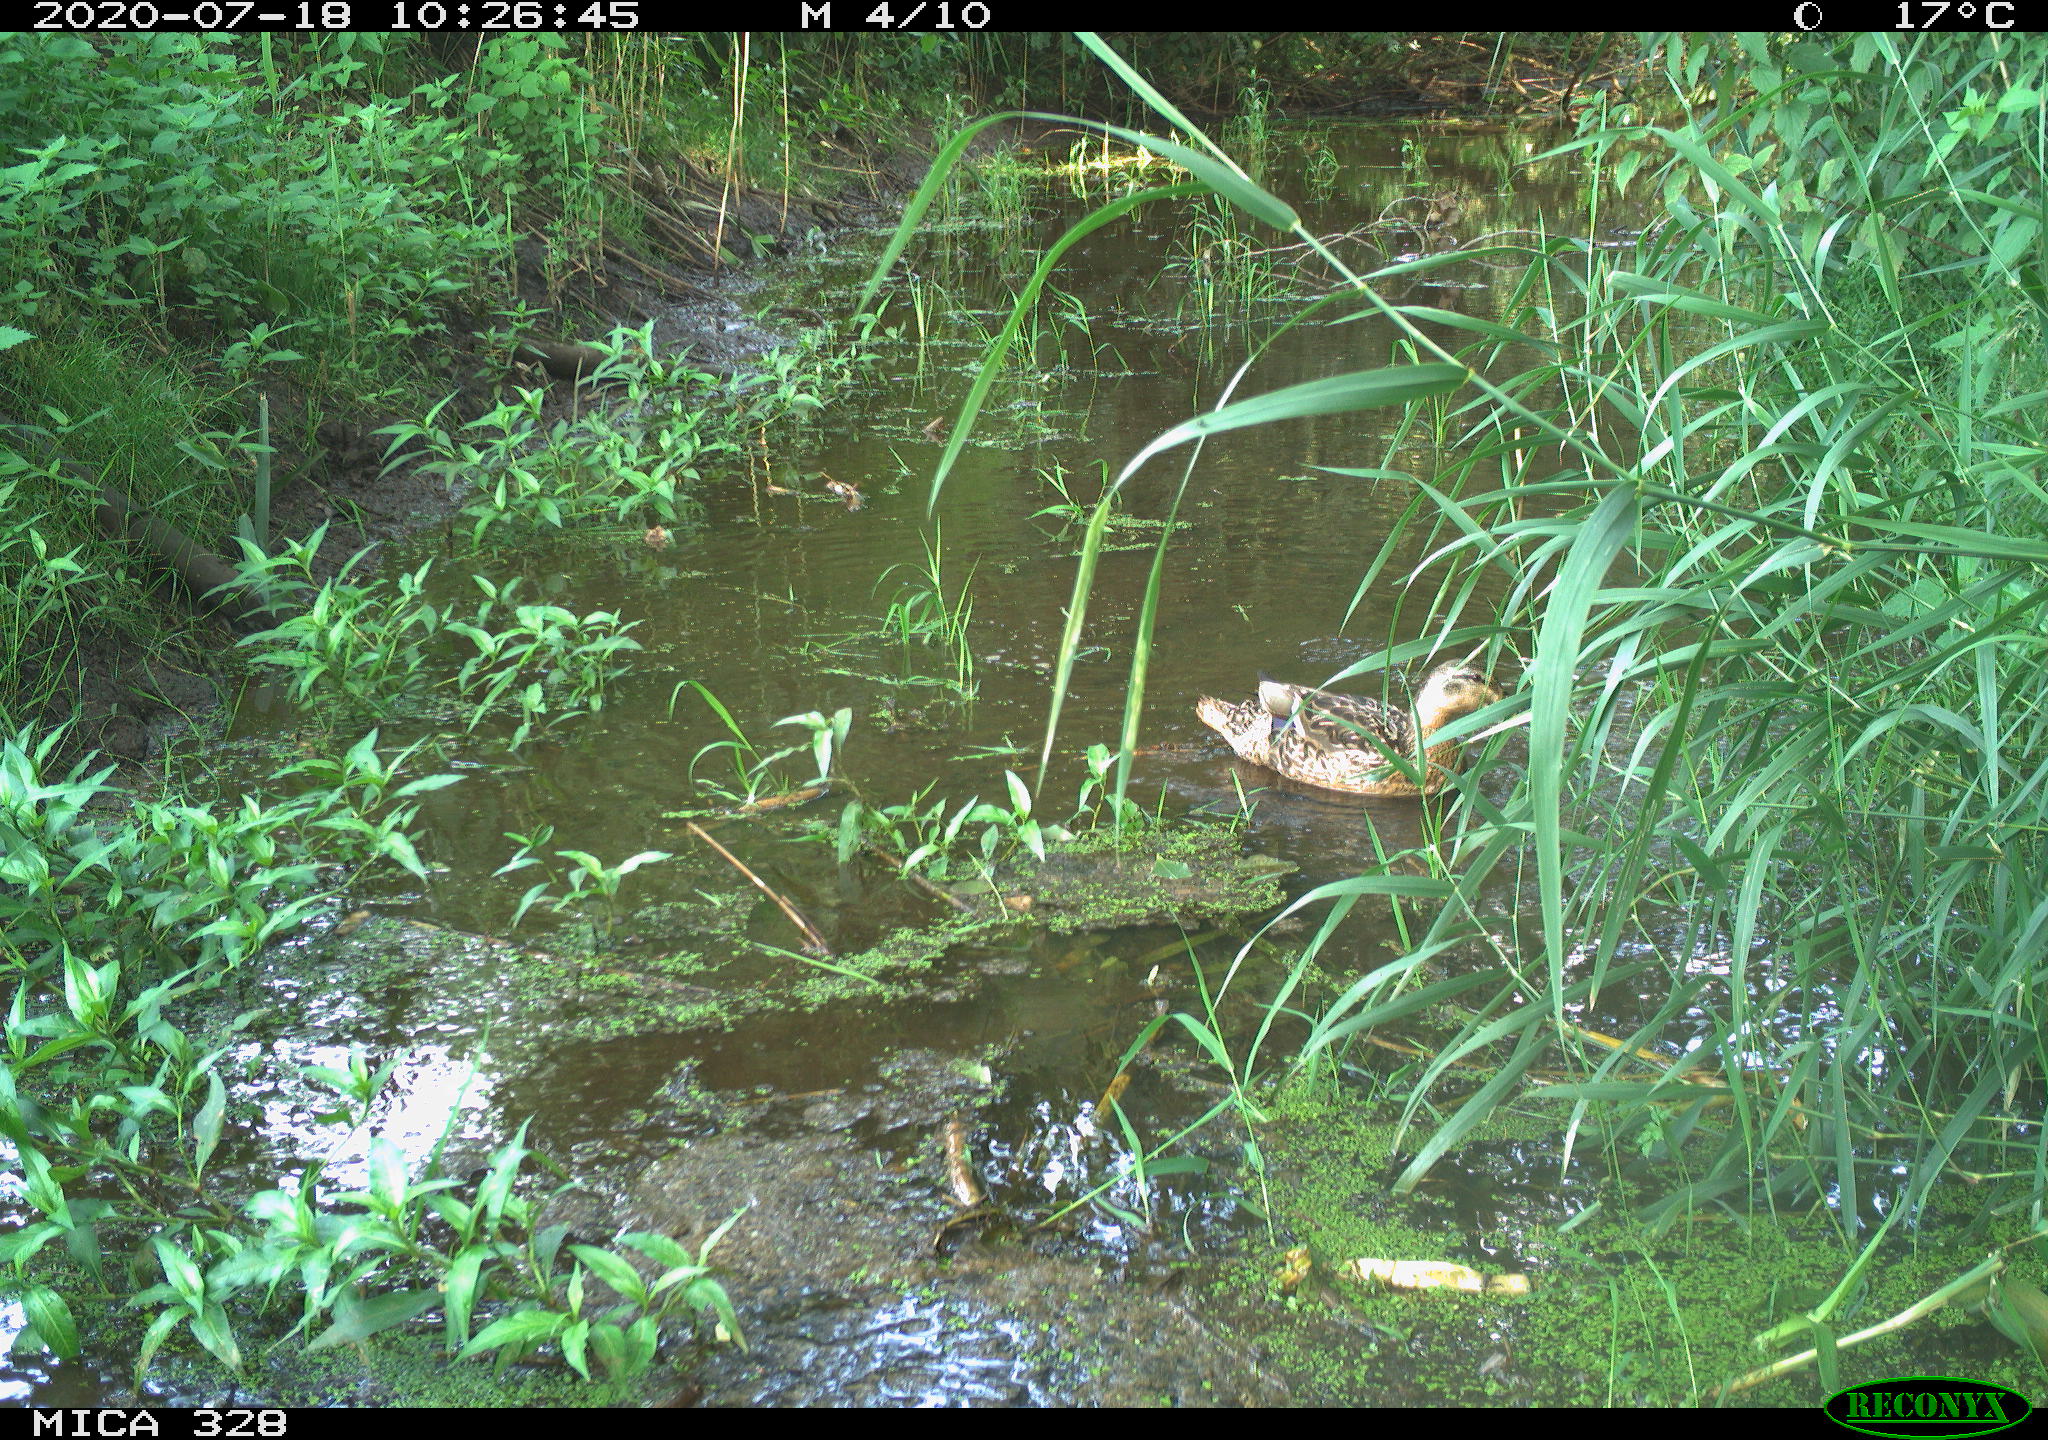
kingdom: Animalia
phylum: Chordata
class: Aves
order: Anseriformes
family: Anatidae
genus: Anas
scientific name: Anas platyrhynchos
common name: Mallard
